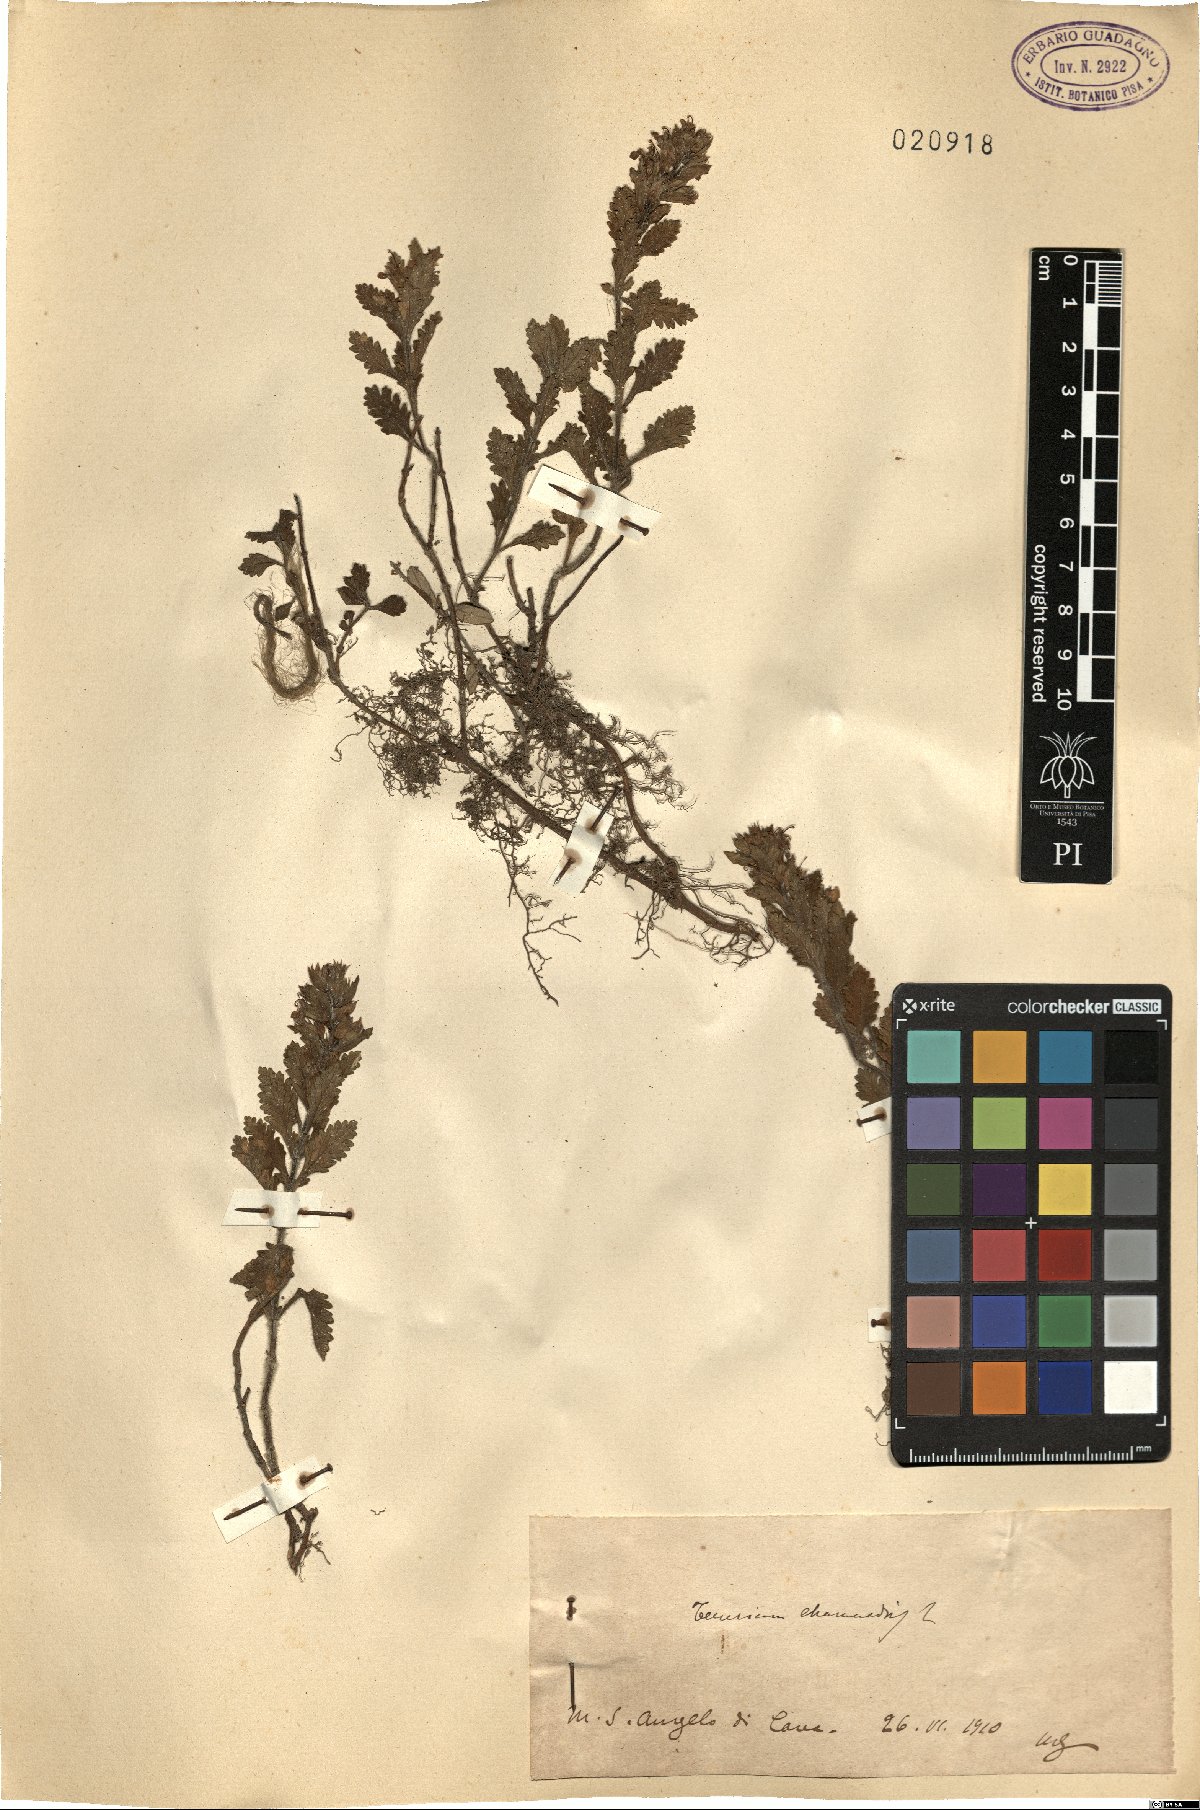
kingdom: Plantae
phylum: Tracheophyta
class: Magnoliopsida
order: Lamiales
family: Lamiaceae
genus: Teucrium
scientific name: Teucrium chamaedrys
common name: Wall germander
